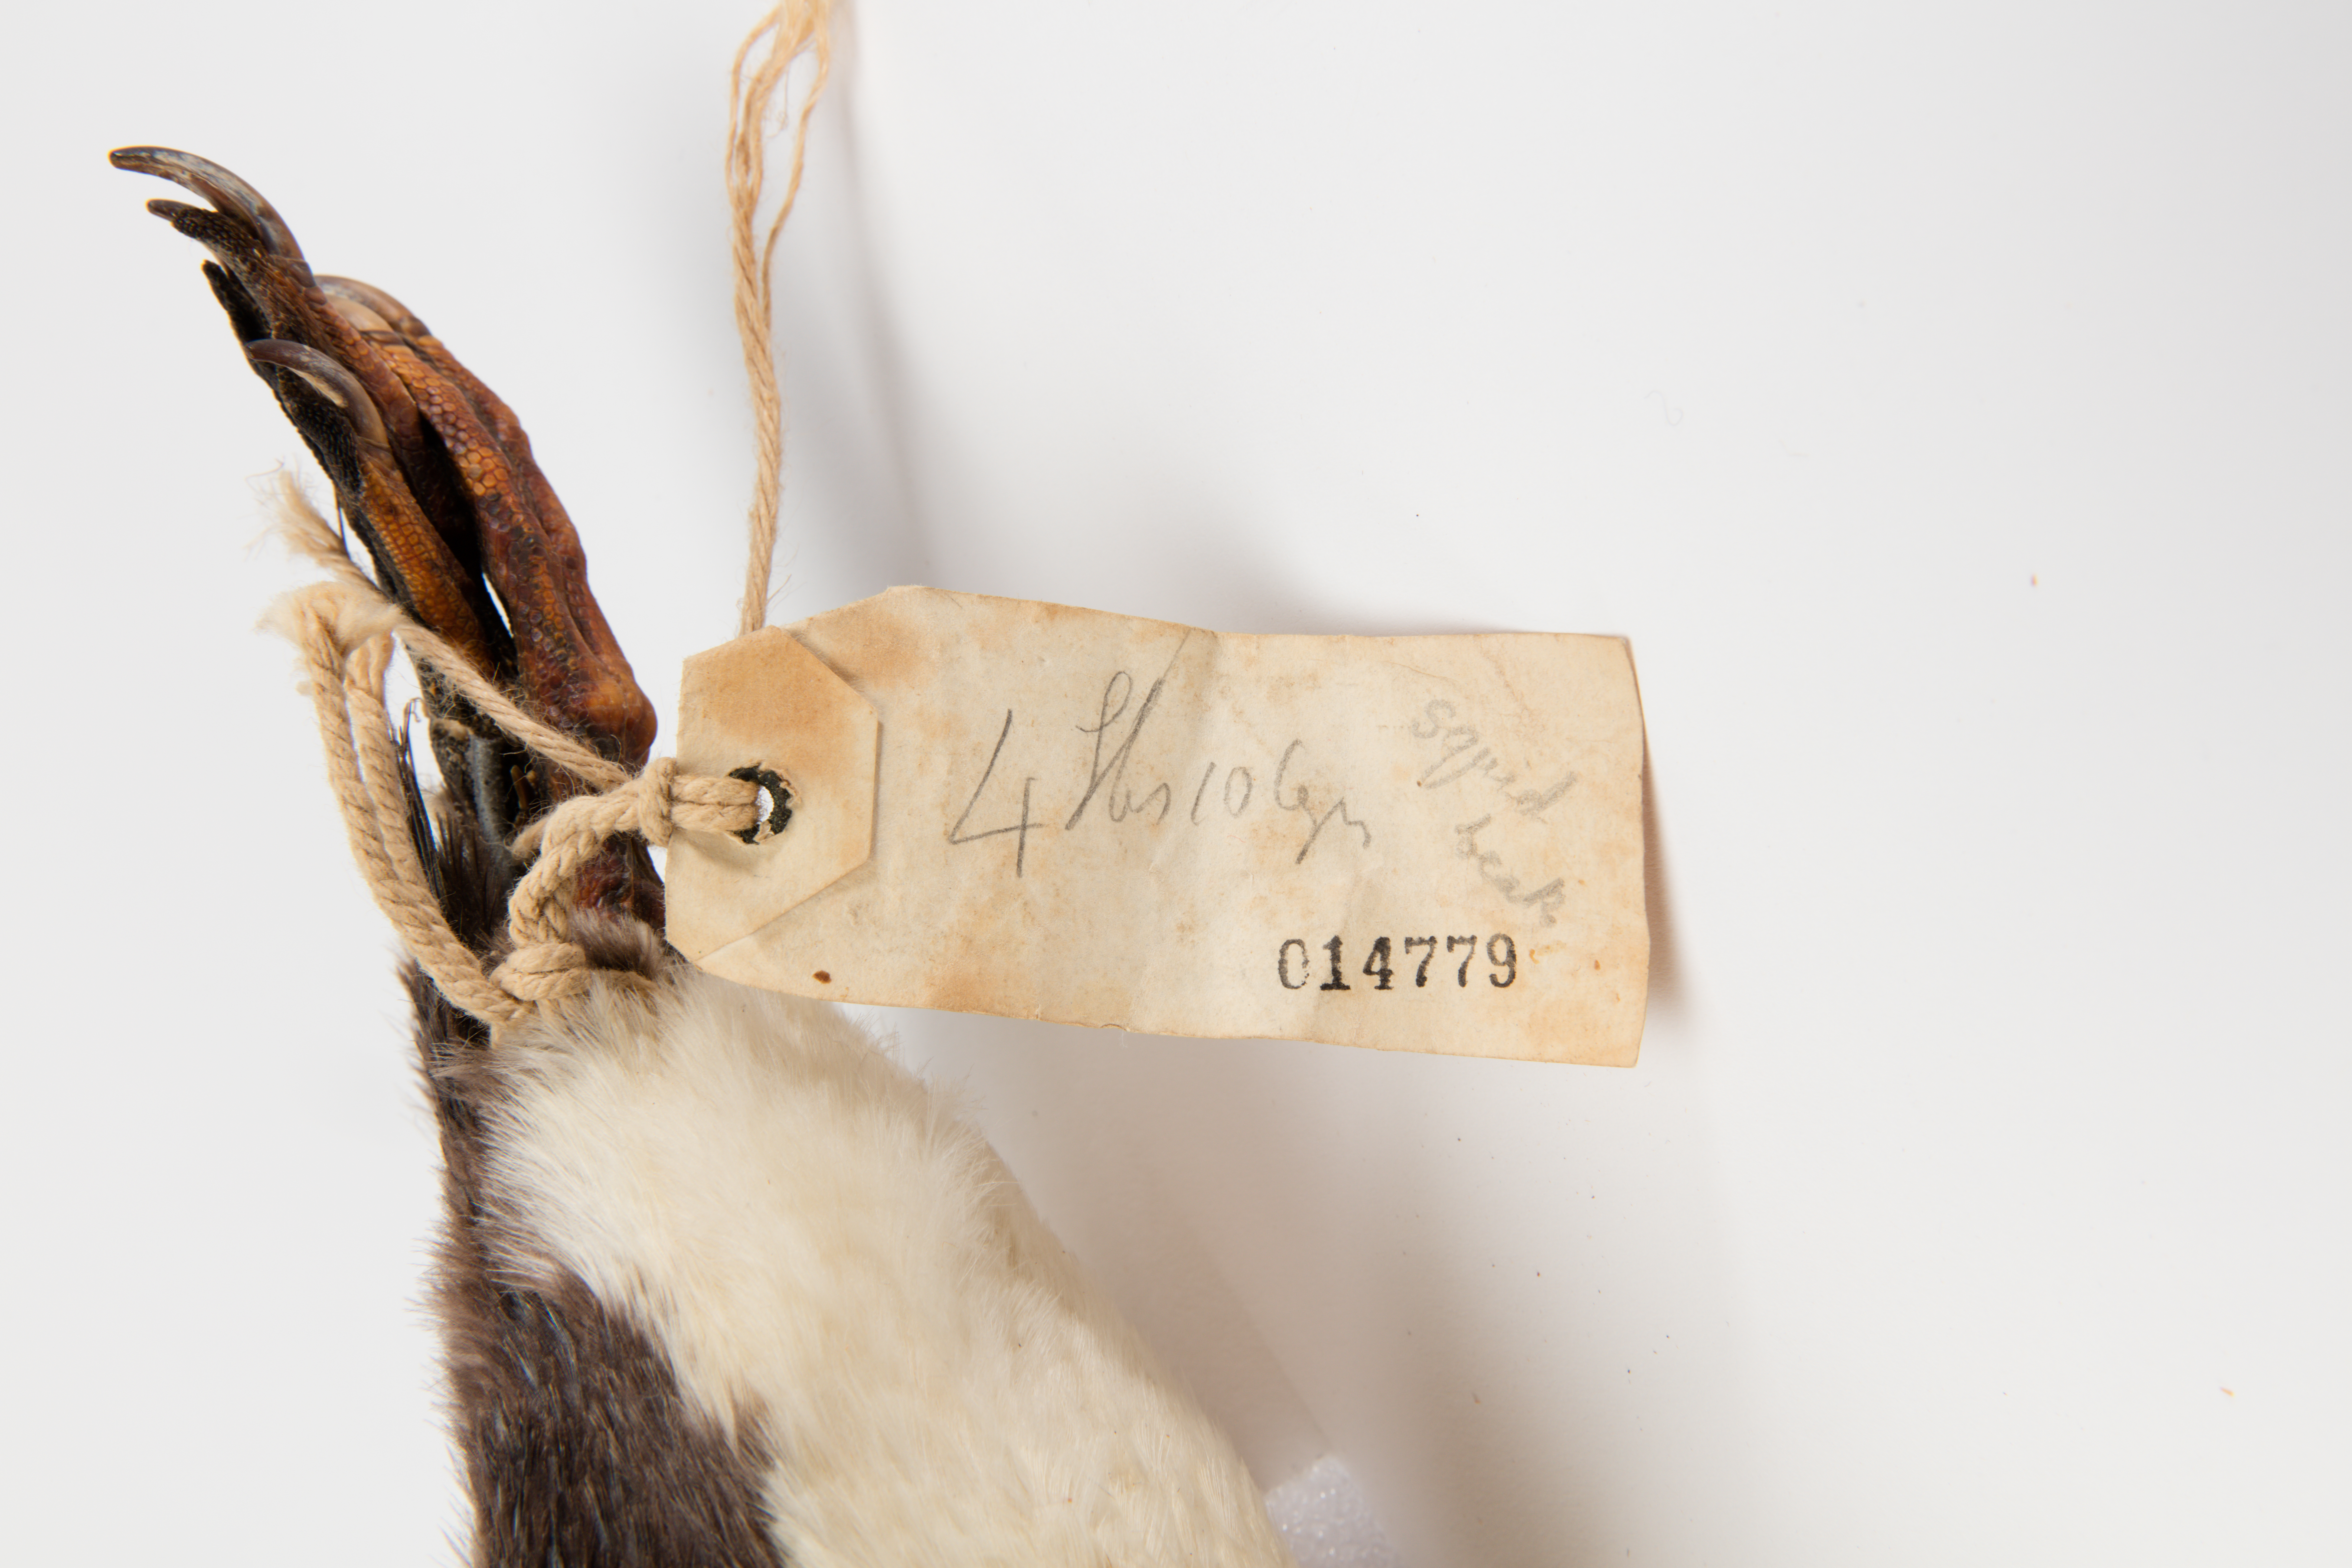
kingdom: Animalia
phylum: Chordata
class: Aves
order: Sphenisciformes
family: Spheniscidae
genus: Eudyptes
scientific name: Eudyptes pachyrhynchus
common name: Fiordland penguin
